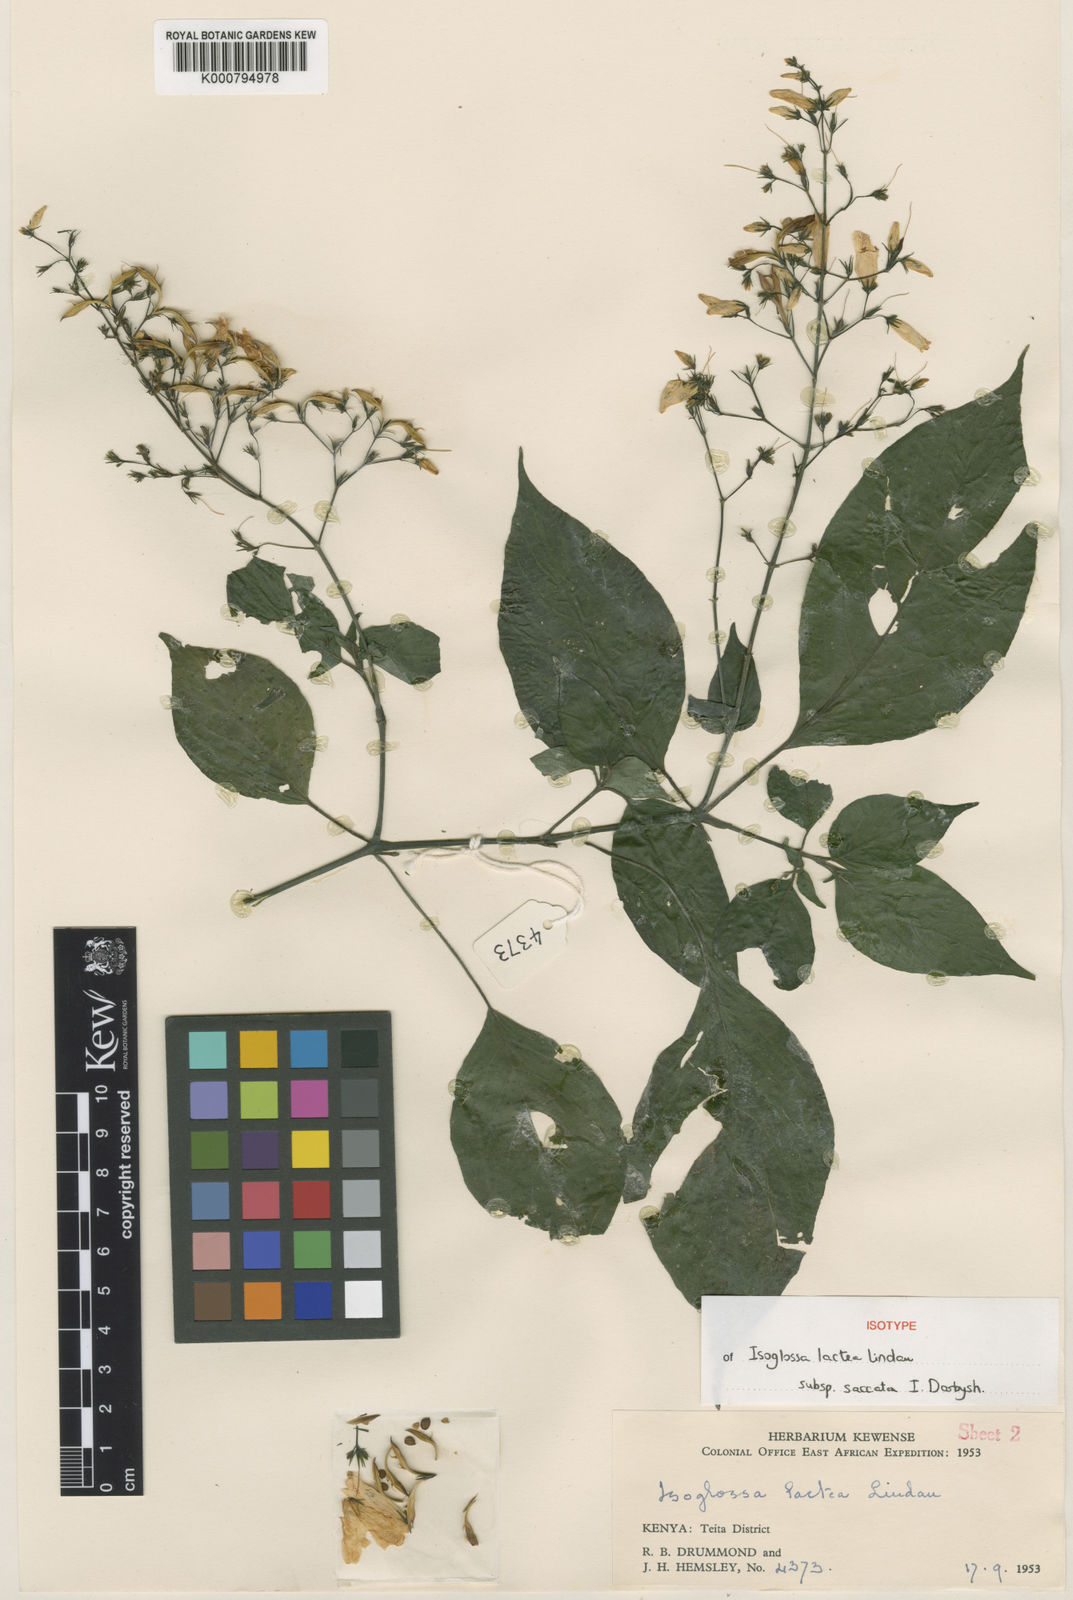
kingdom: Plantae
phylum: Tracheophyta
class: Magnoliopsida
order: Lamiales
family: Acanthaceae
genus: Isoglossa
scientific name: Isoglossa lactea
